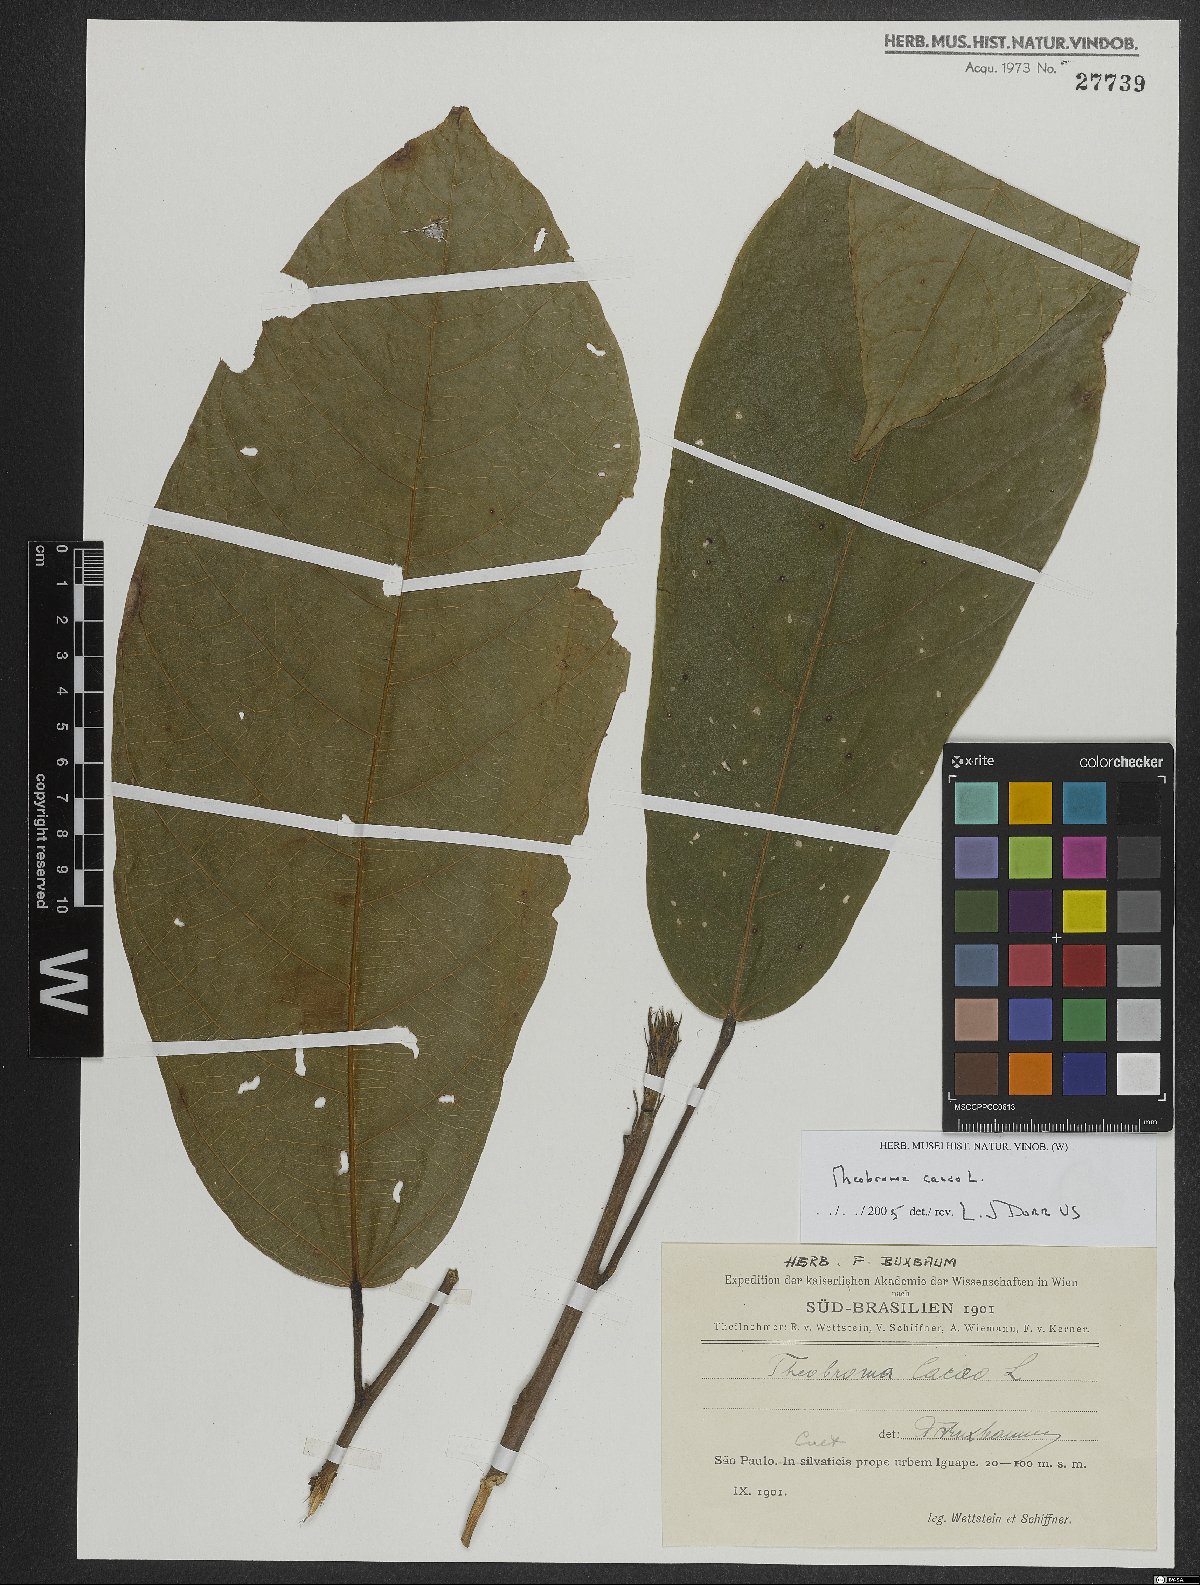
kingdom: Plantae
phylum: Tracheophyta
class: Magnoliopsida
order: Malvales
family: Malvaceae
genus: Theobroma
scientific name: Theobroma cacao
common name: Cocoa
